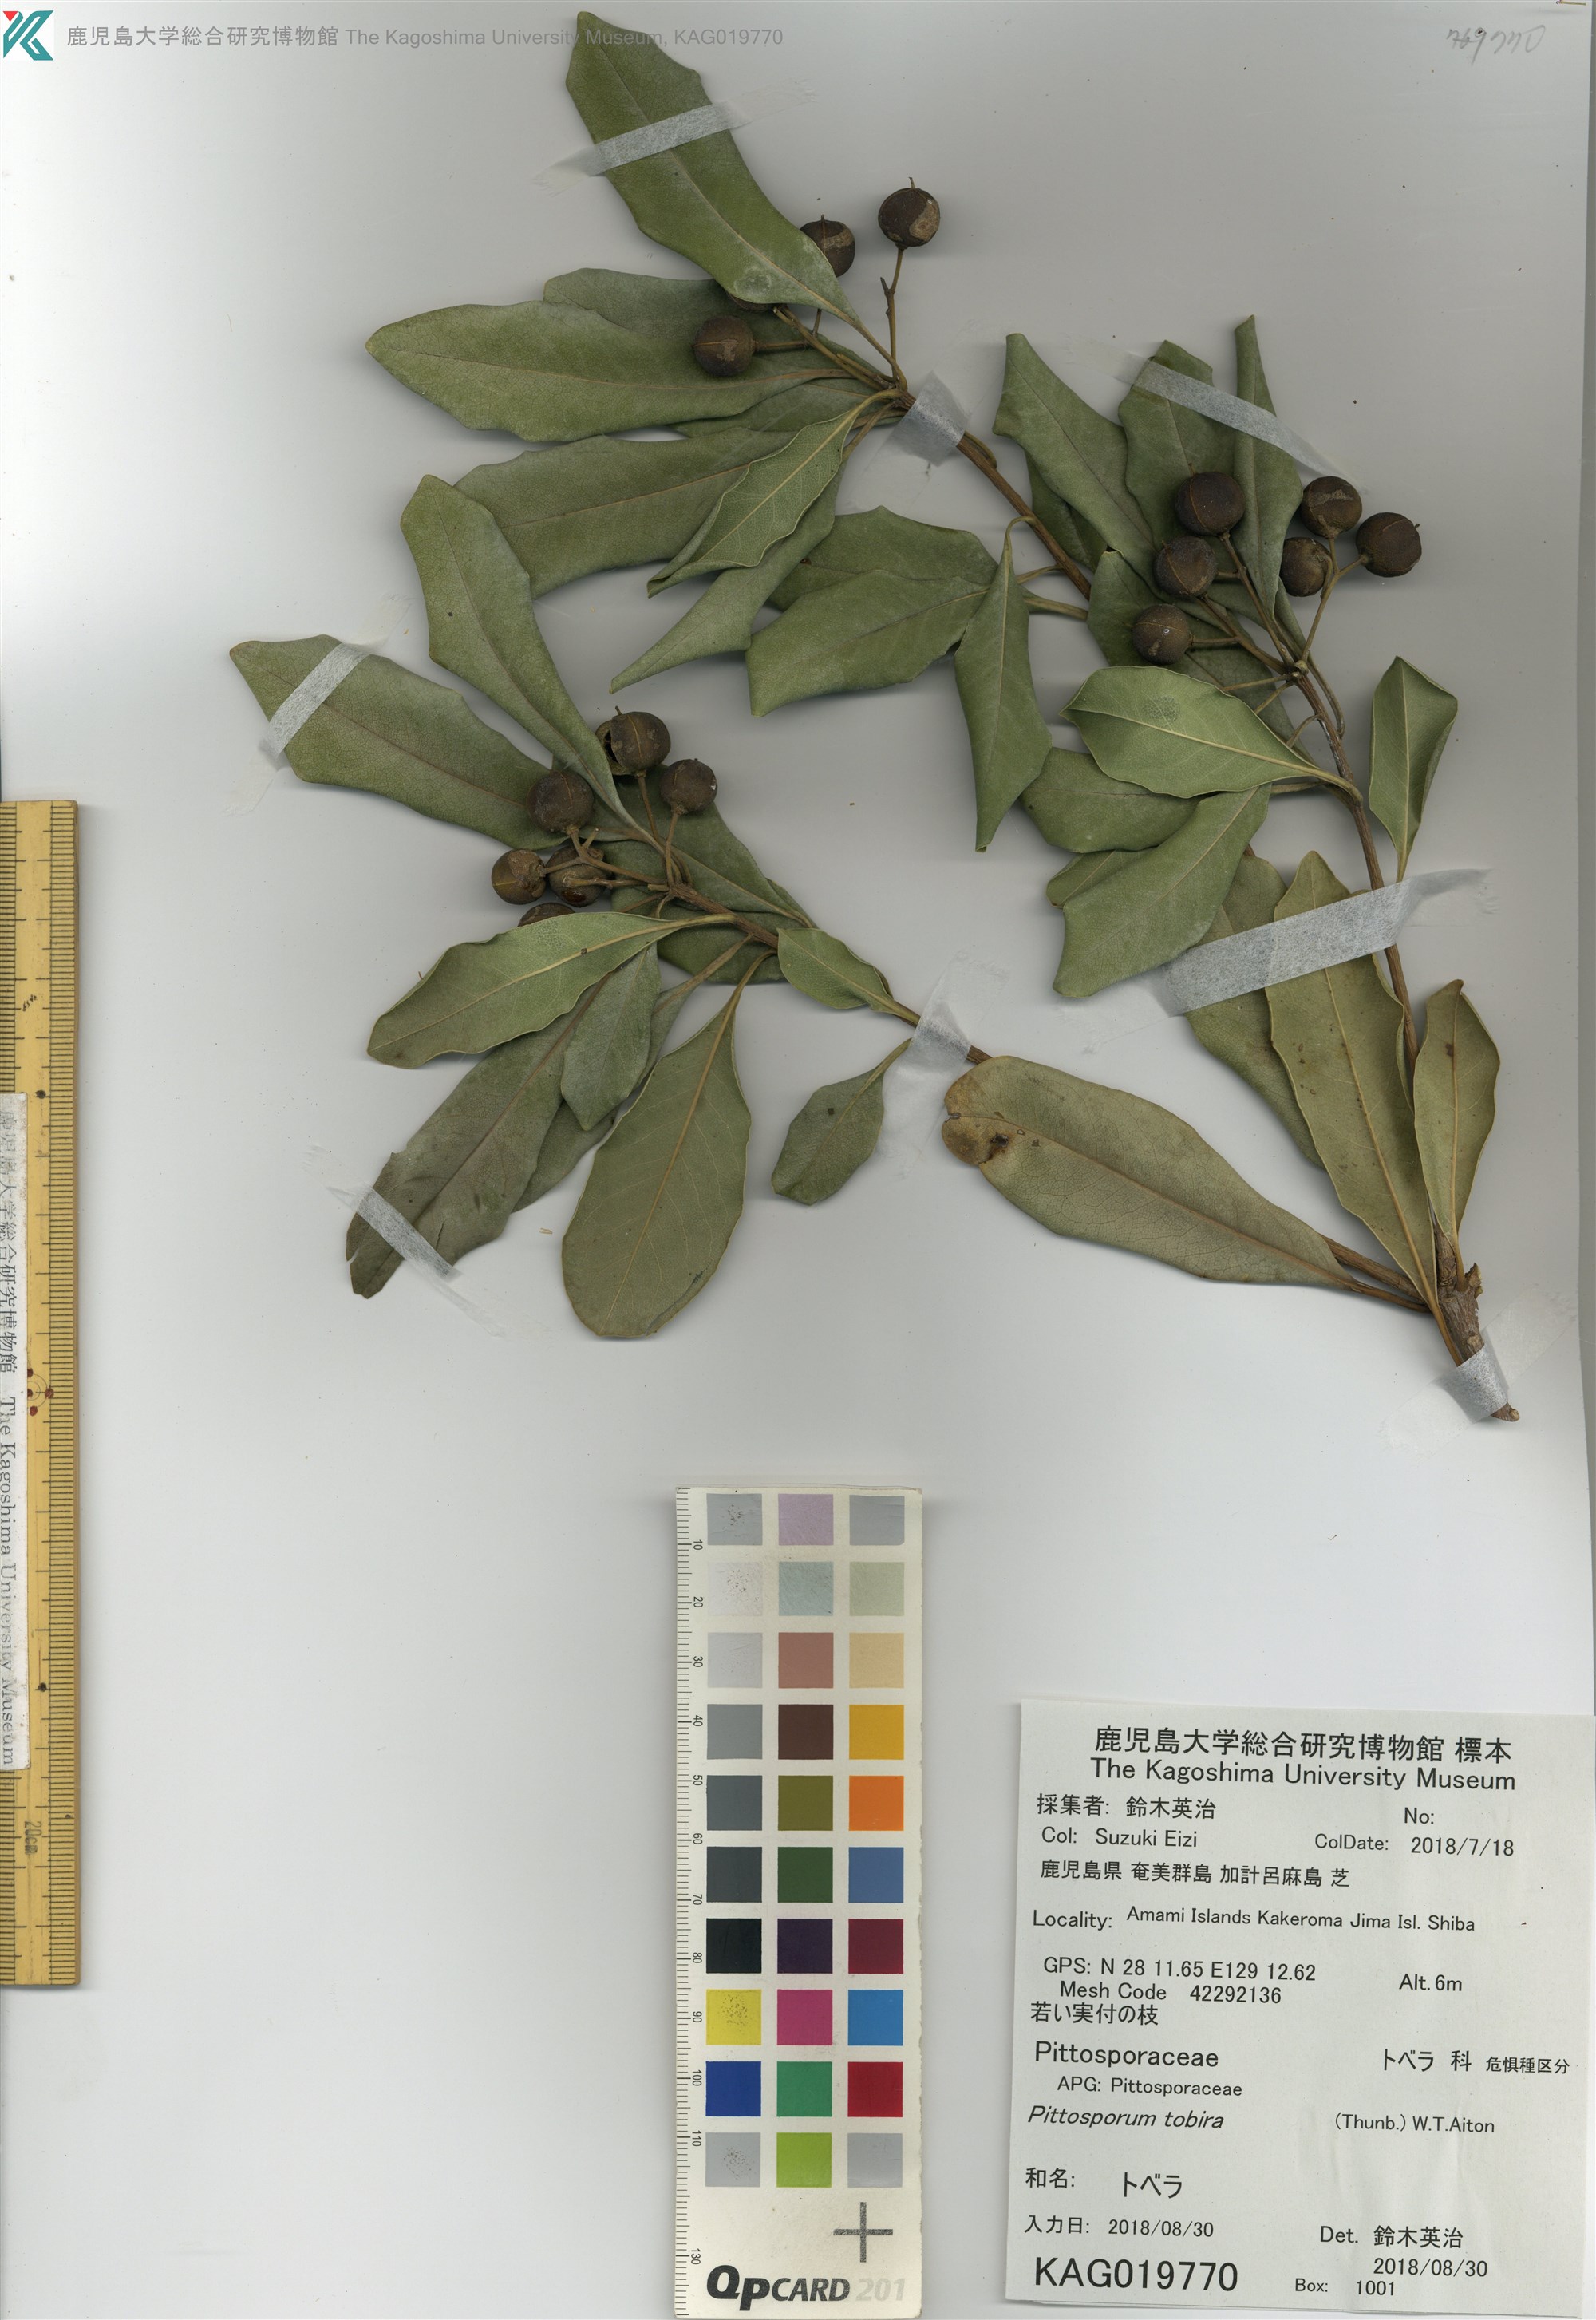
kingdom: Plantae
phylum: Tracheophyta
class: Magnoliopsida
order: Apiales
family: Pittosporaceae
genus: Pittosporum
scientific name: Pittosporum tobira
